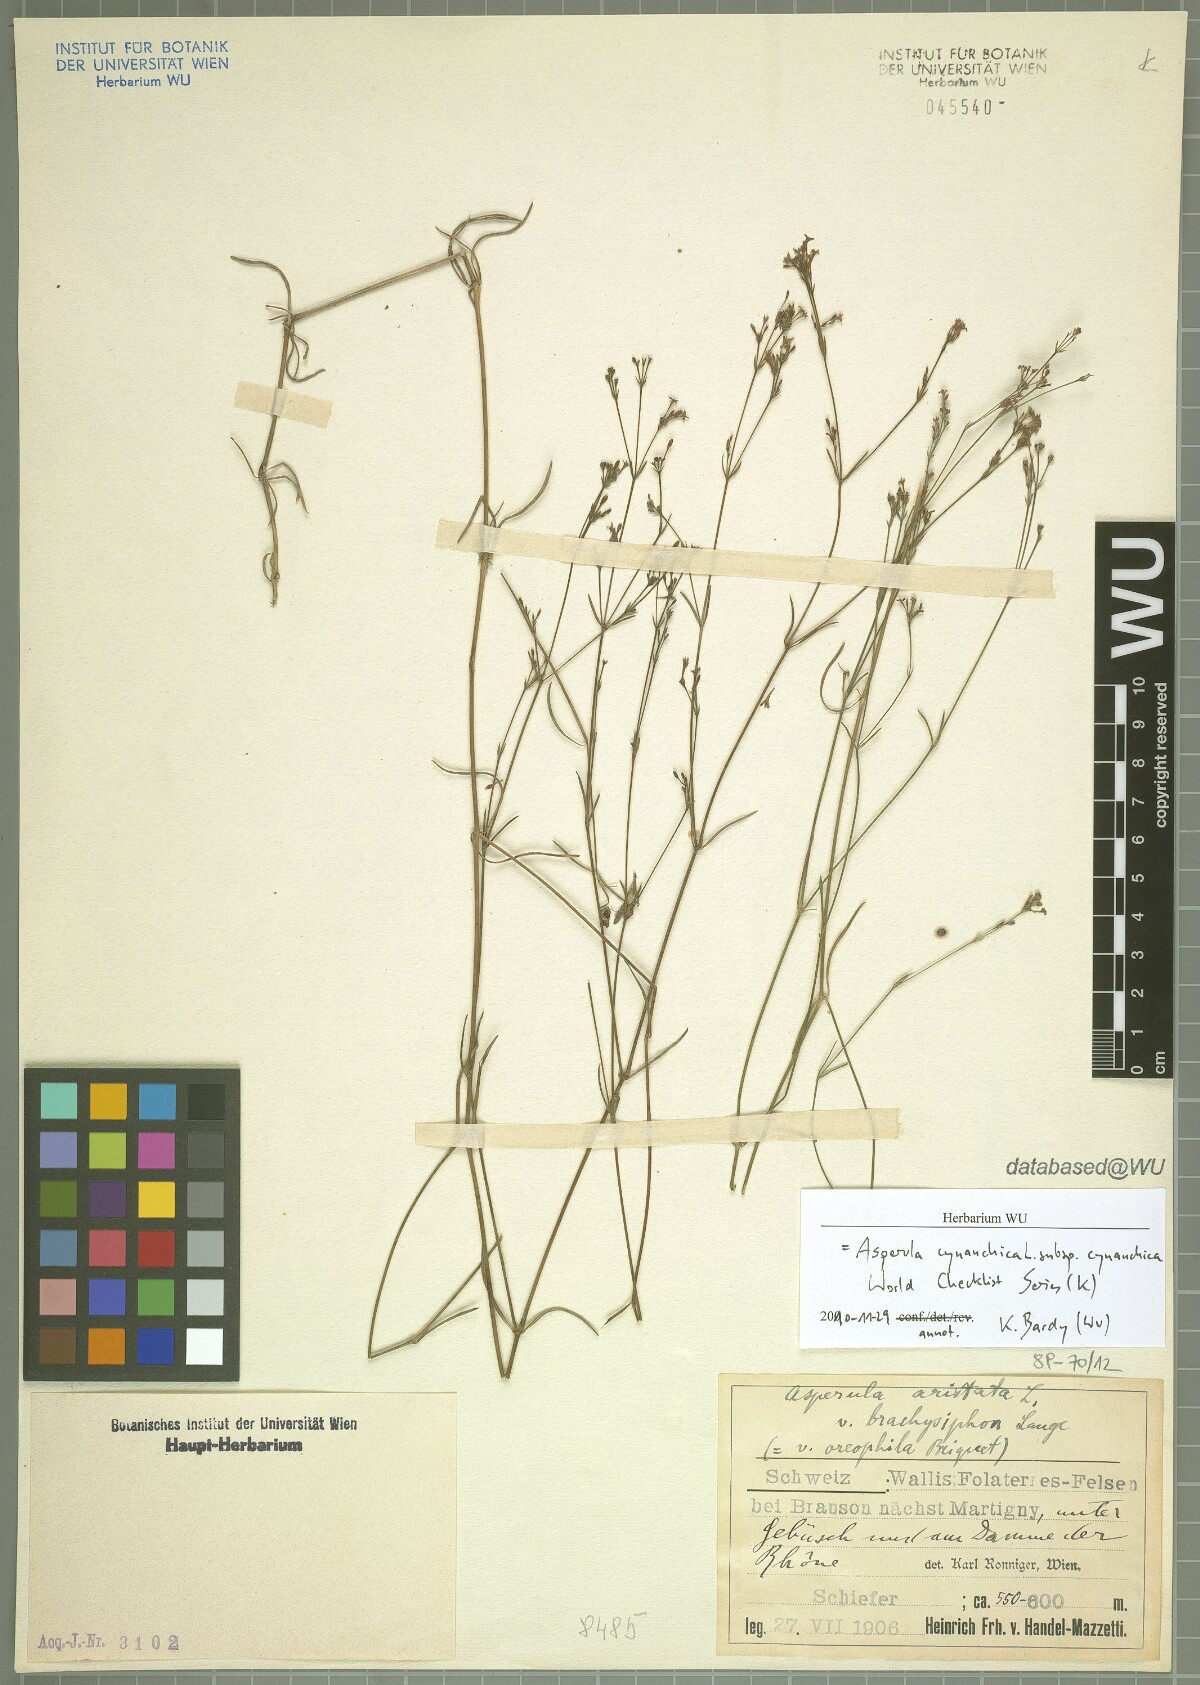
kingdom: Plantae
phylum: Tracheophyta
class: Magnoliopsida
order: Gentianales
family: Rubiaceae
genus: Cynanchica
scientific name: Cynanchica pyrenaica
